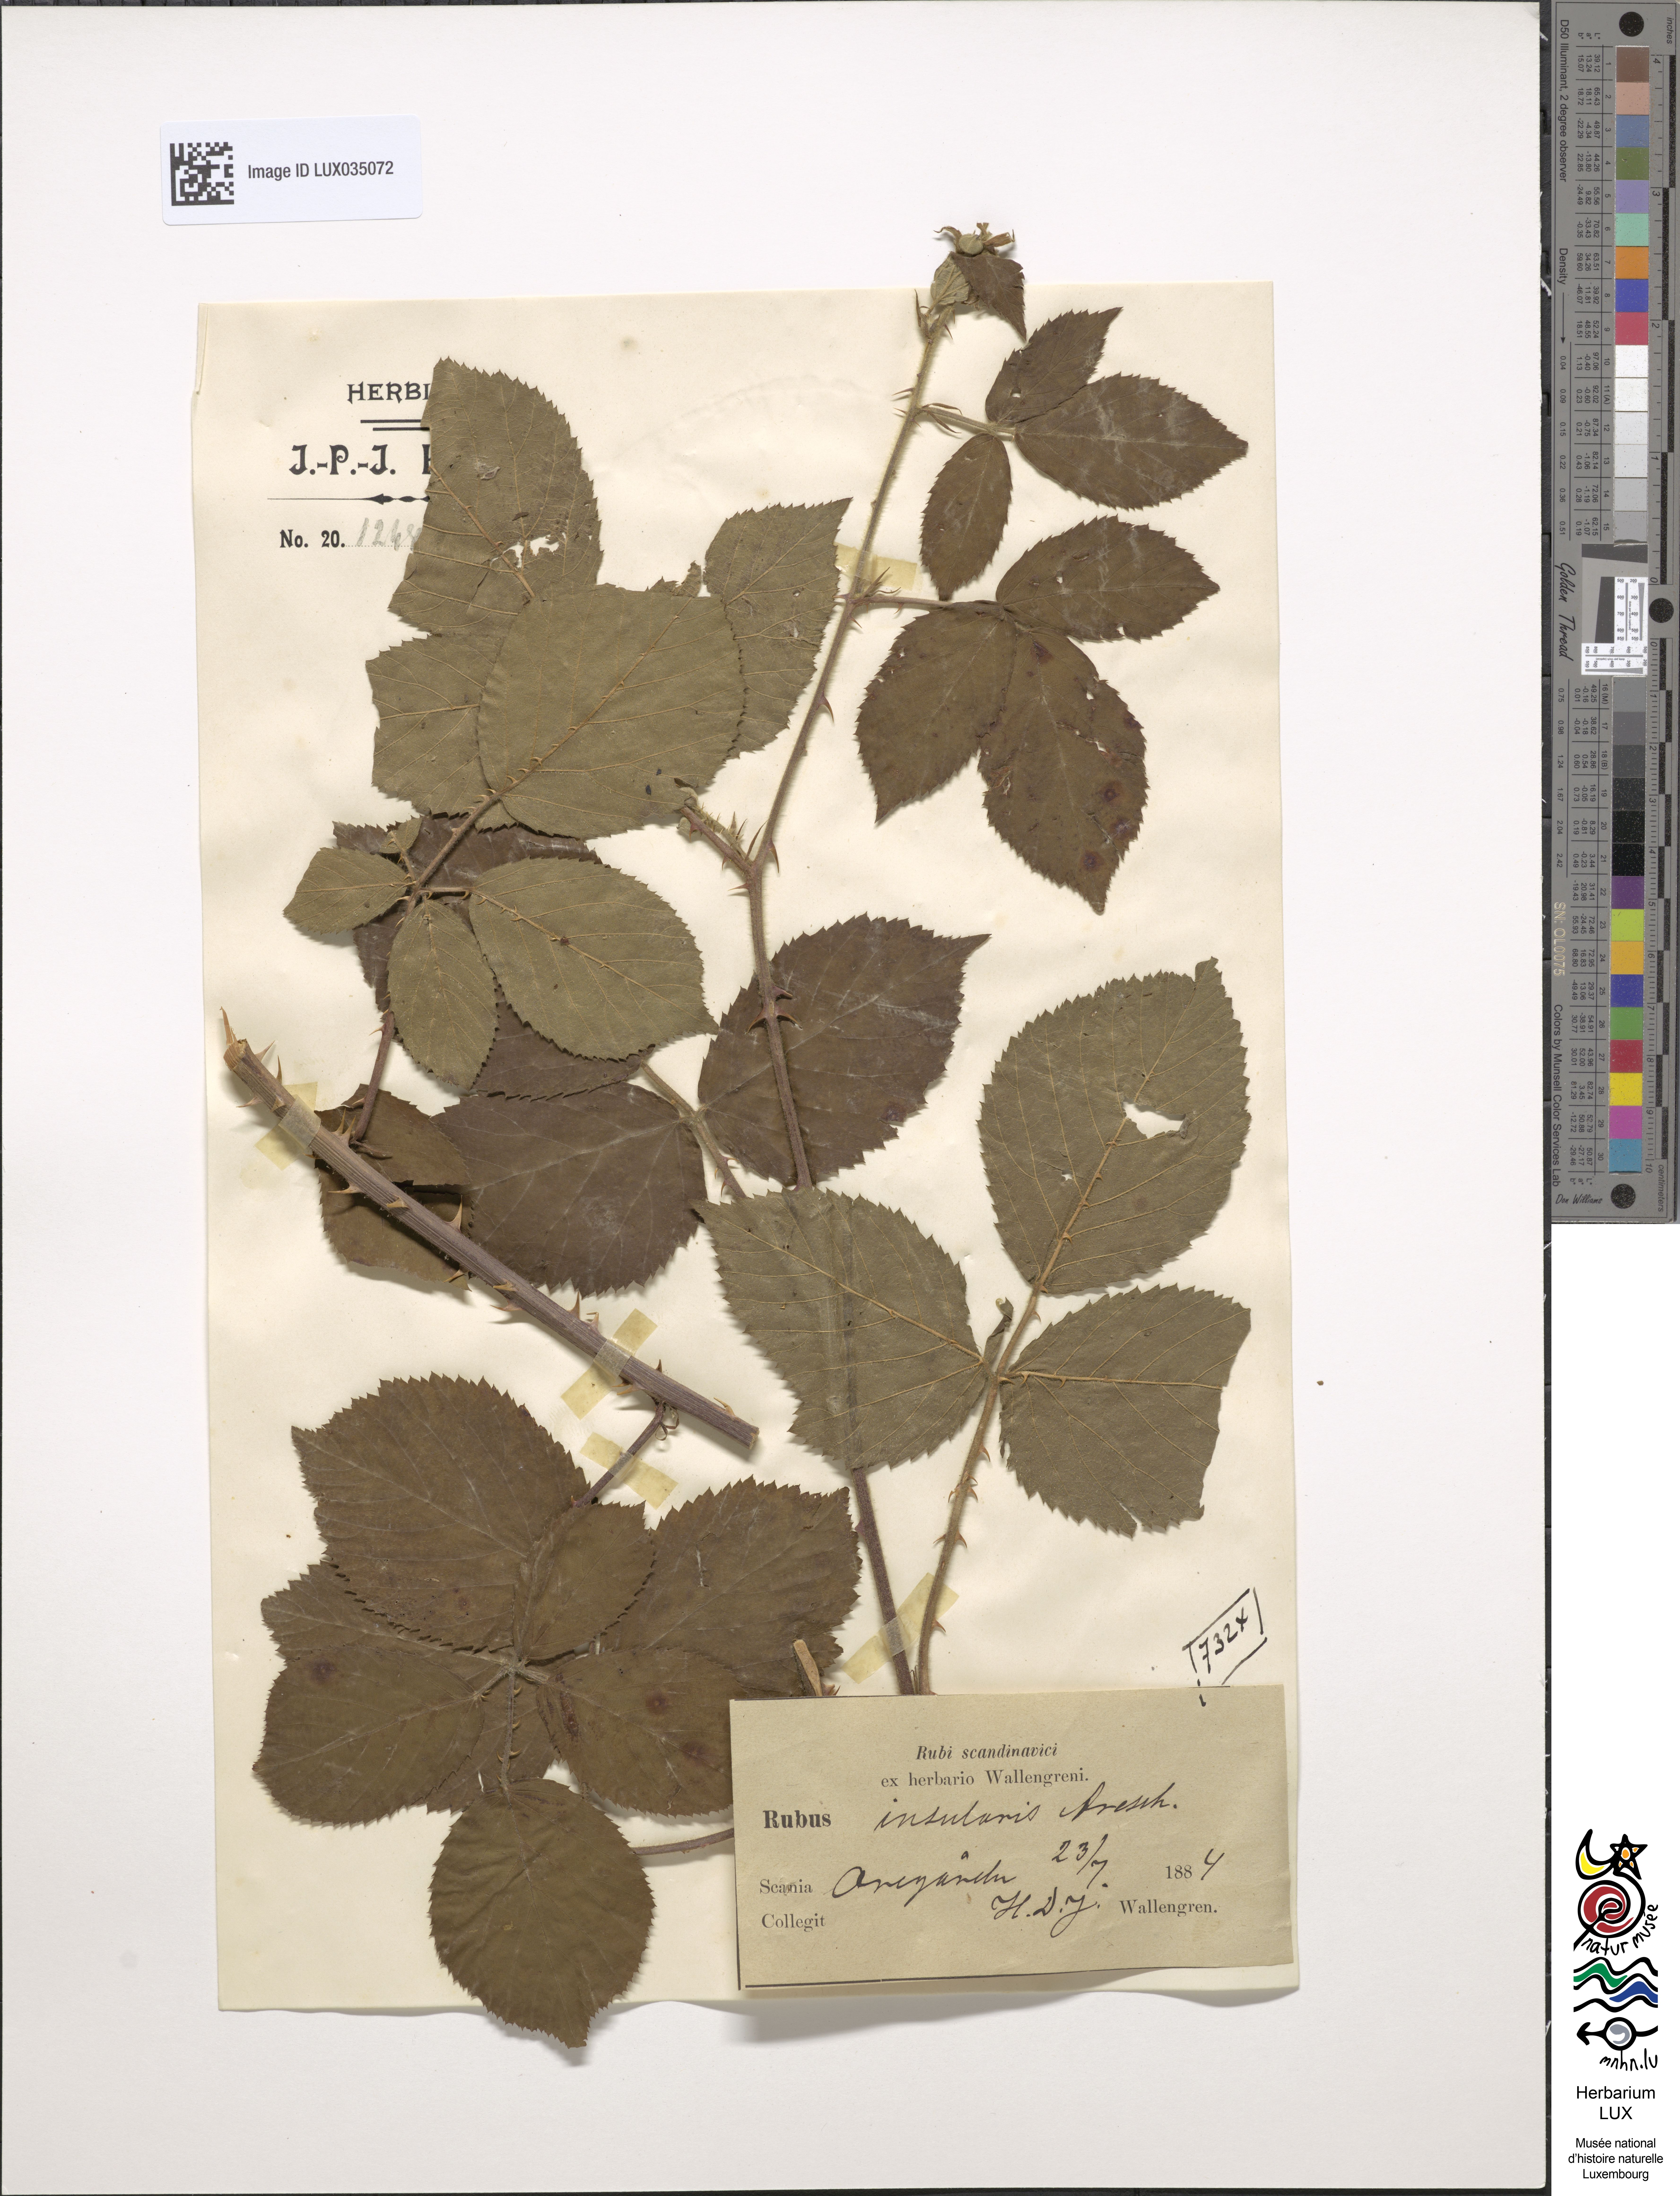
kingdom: Plantae
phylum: Tracheophyta
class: Magnoliopsida
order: Rosales
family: Rosaceae
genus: Rubus
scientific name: Rubus insularis
